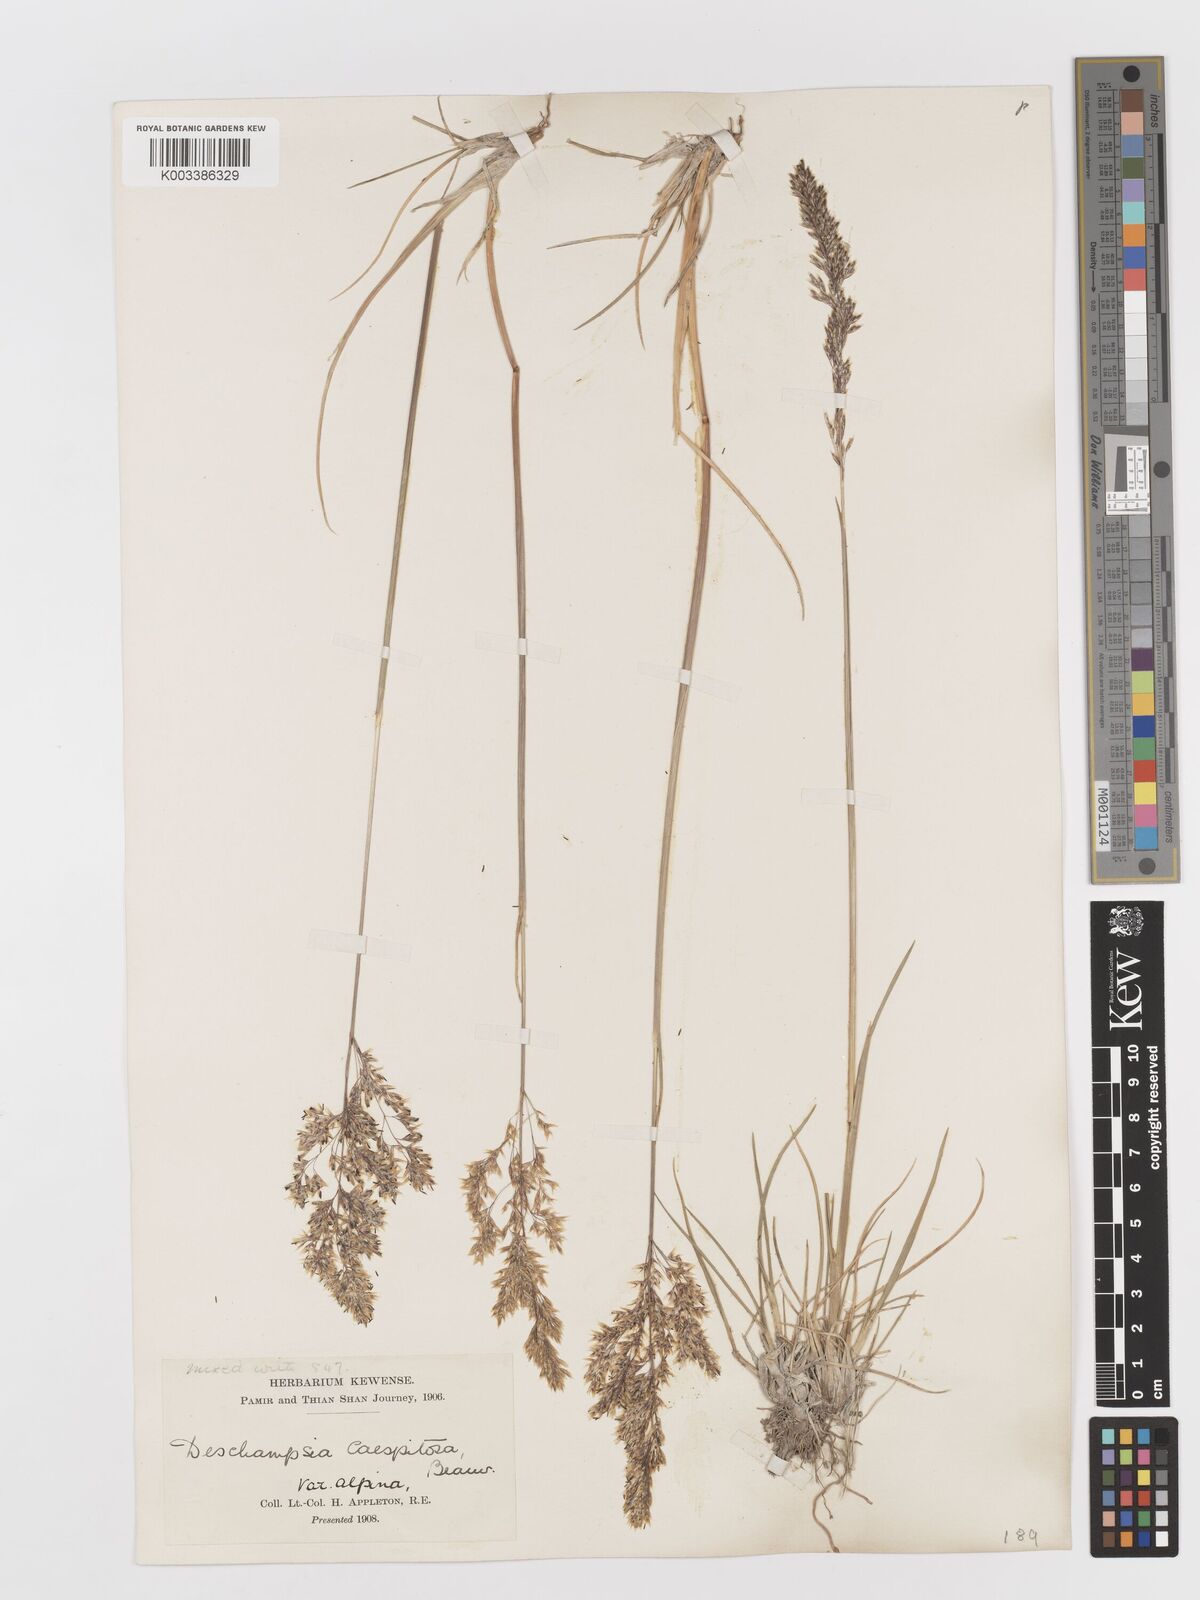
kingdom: Plantae
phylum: Tracheophyta
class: Liliopsida
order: Poales
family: Poaceae
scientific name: Poaceae
